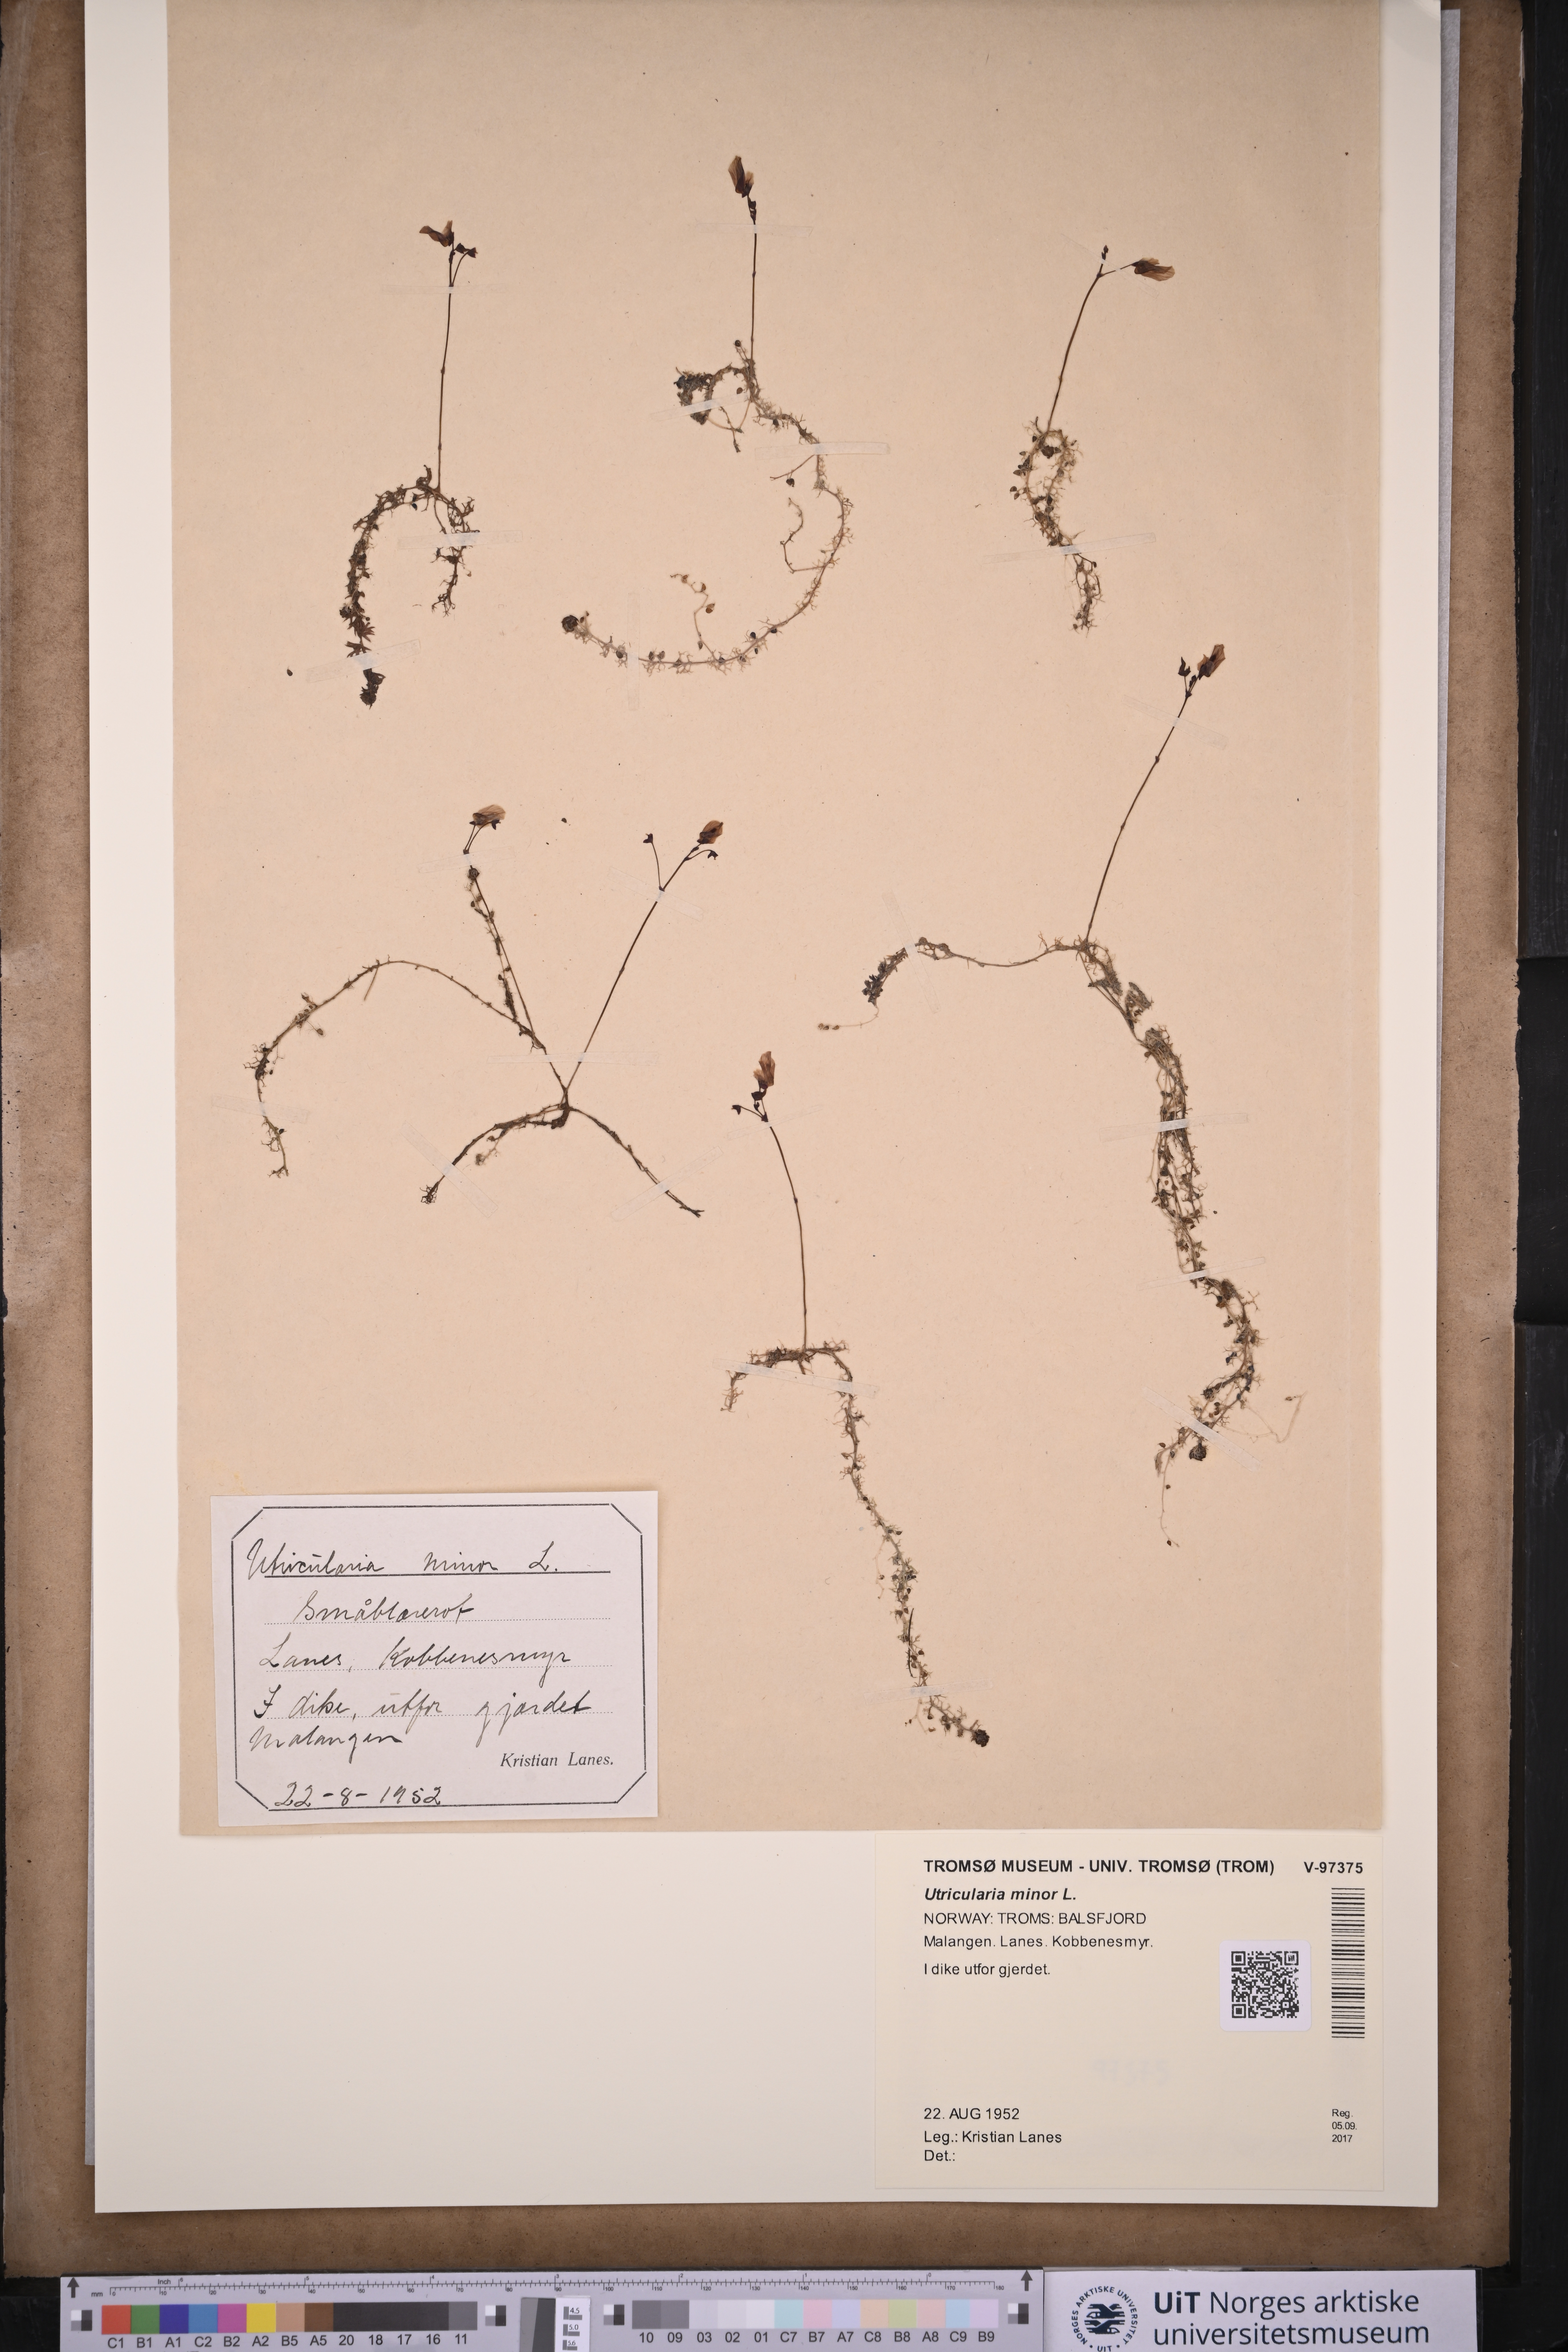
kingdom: Plantae
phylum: Tracheophyta
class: Magnoliopsida
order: Lamiales
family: Lentibulariaceae
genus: Utricularia
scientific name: Utricularia minor
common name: Lesser bladderwort
